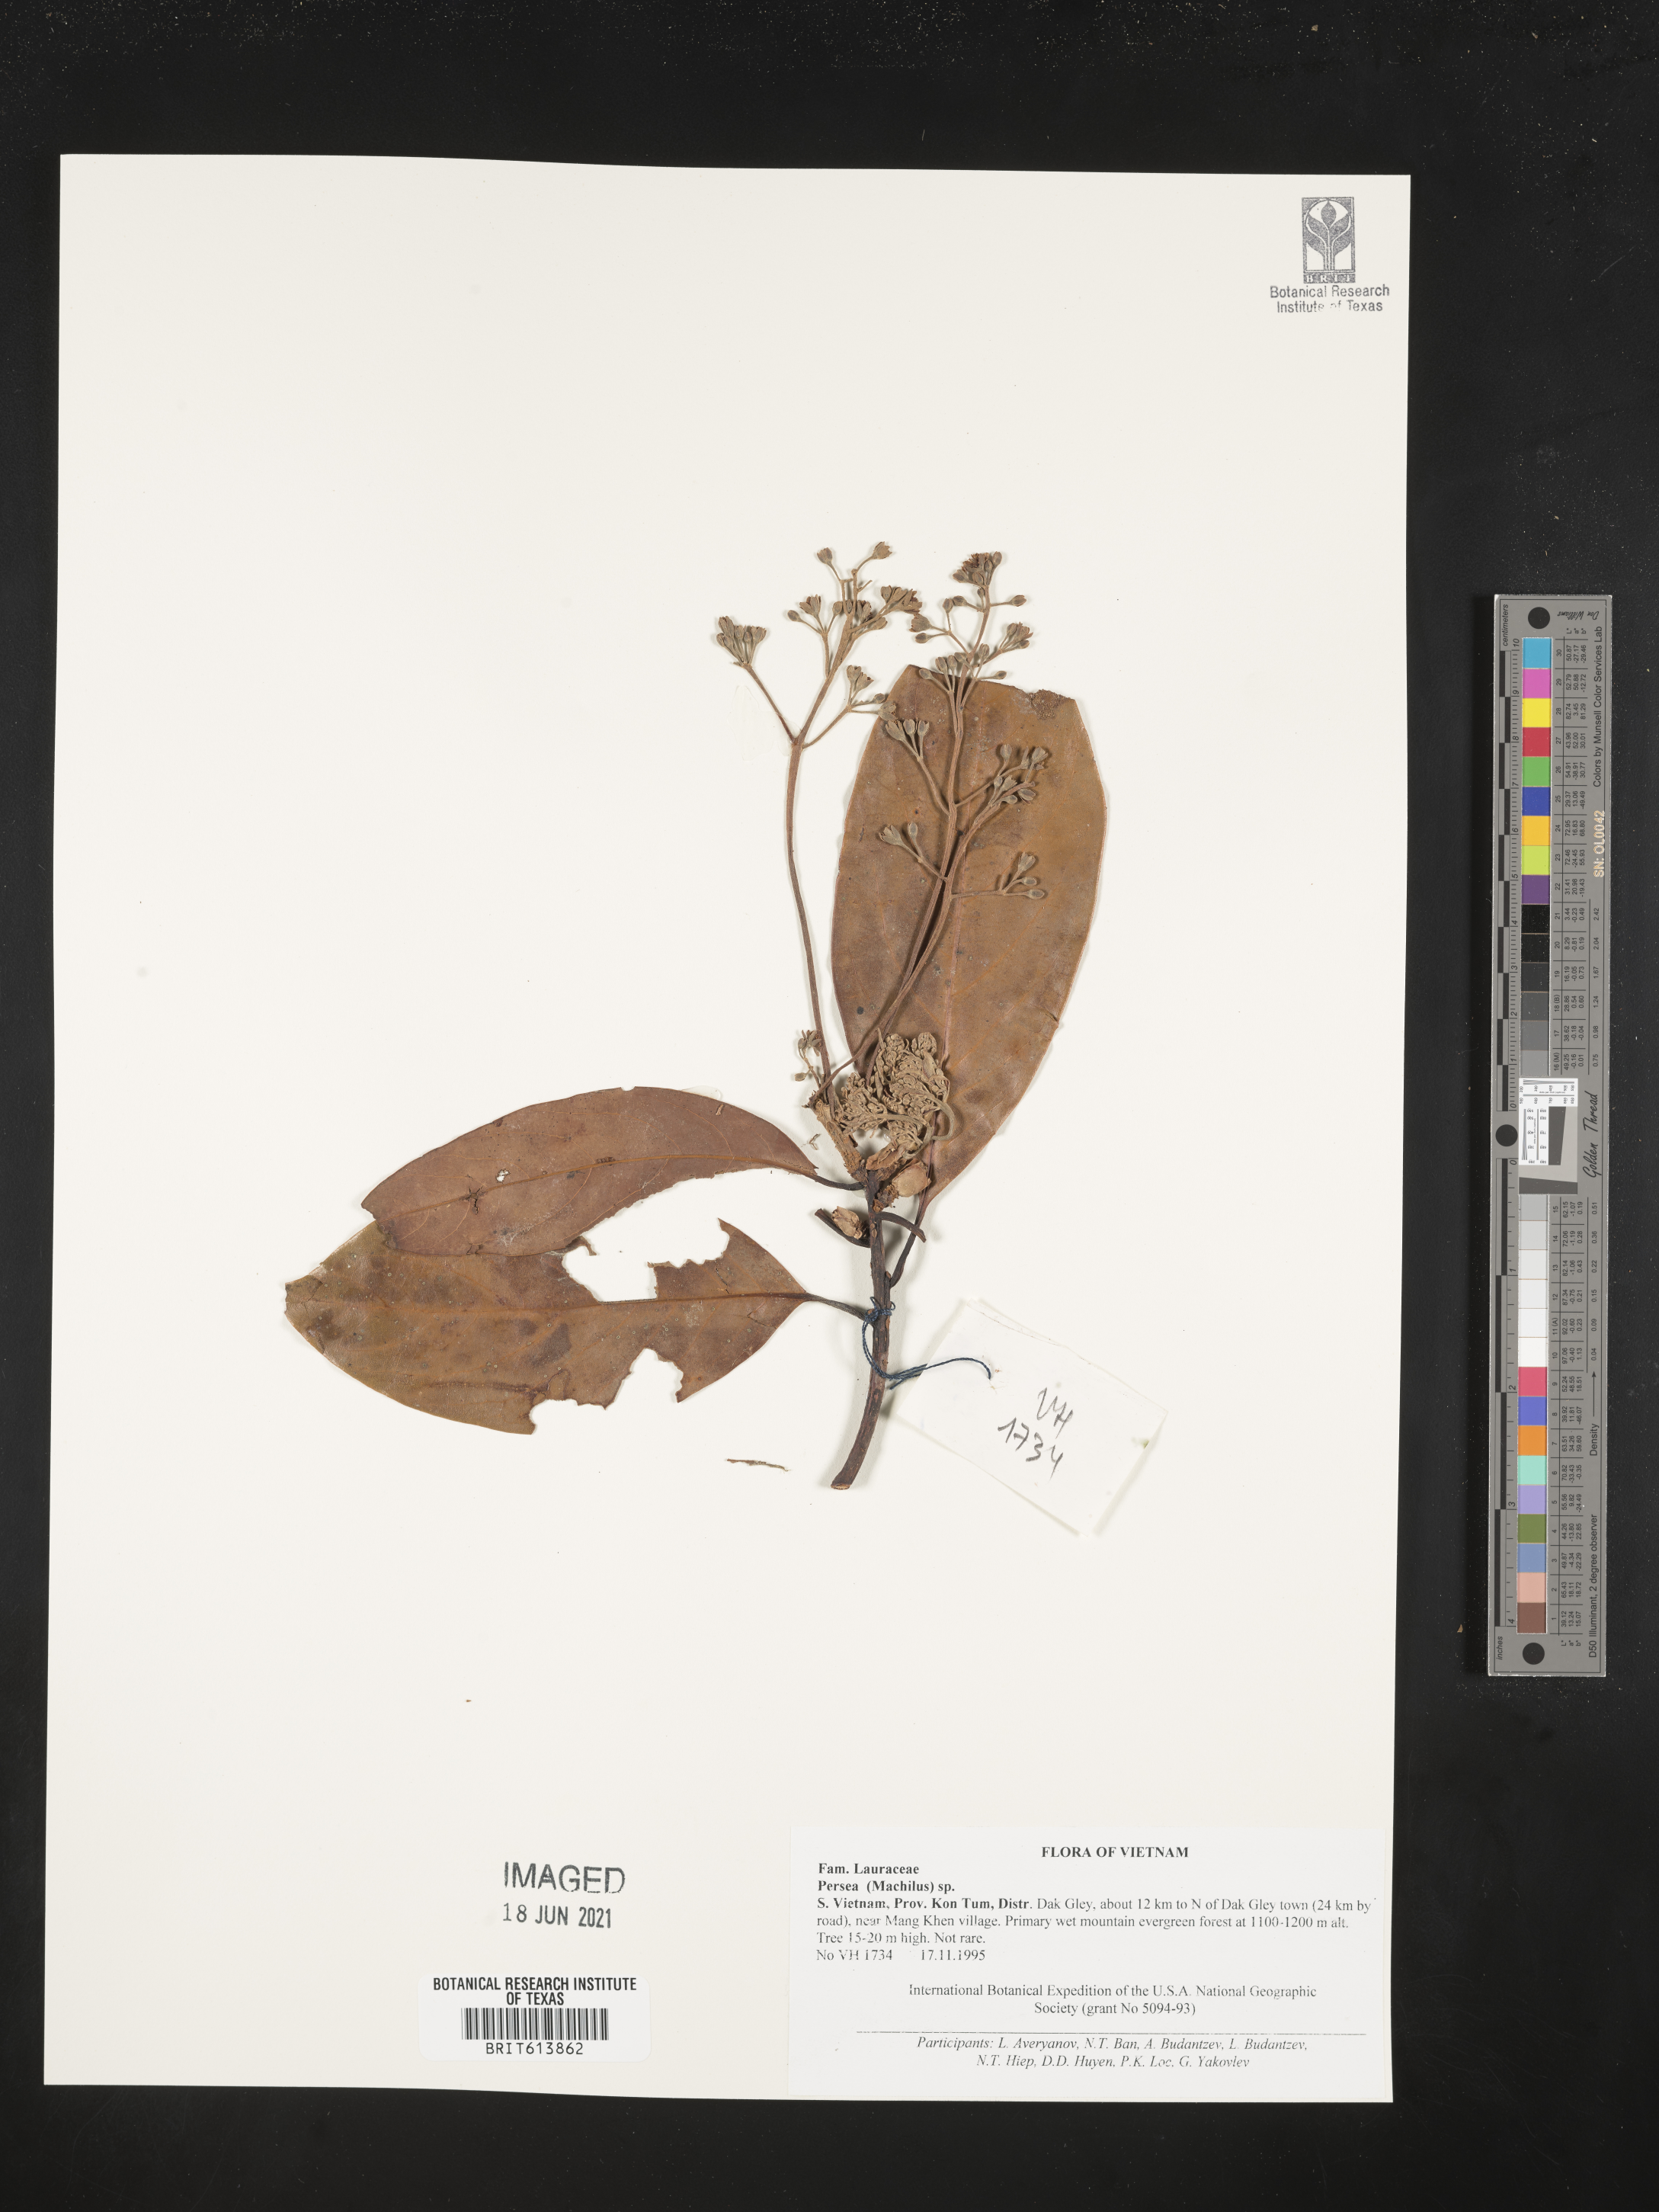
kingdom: Plantae
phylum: Tracheophyta
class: Magnoliopsida
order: Laurales
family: Lauraceae
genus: Persea
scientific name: Persea
